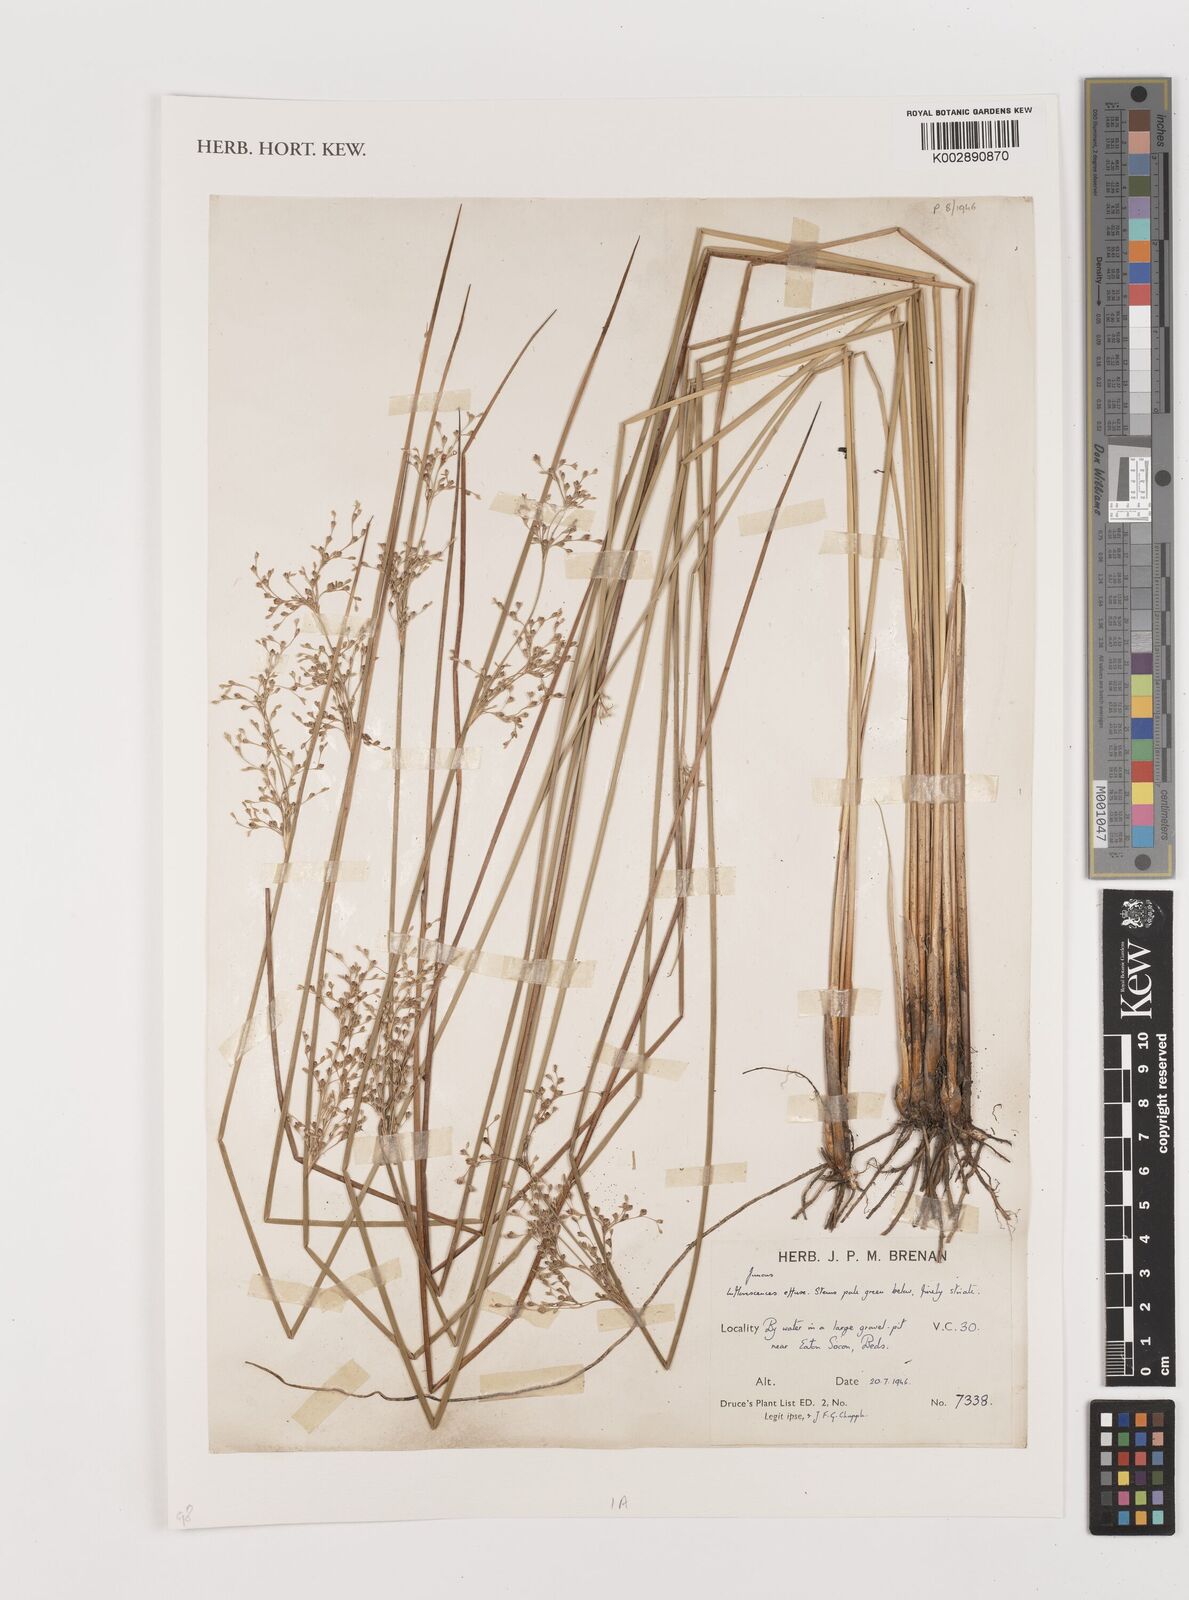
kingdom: Plantae
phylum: Tracheophyta
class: Liliopsida
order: Poales
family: Juncaceae
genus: Juncus
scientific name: Juncus
